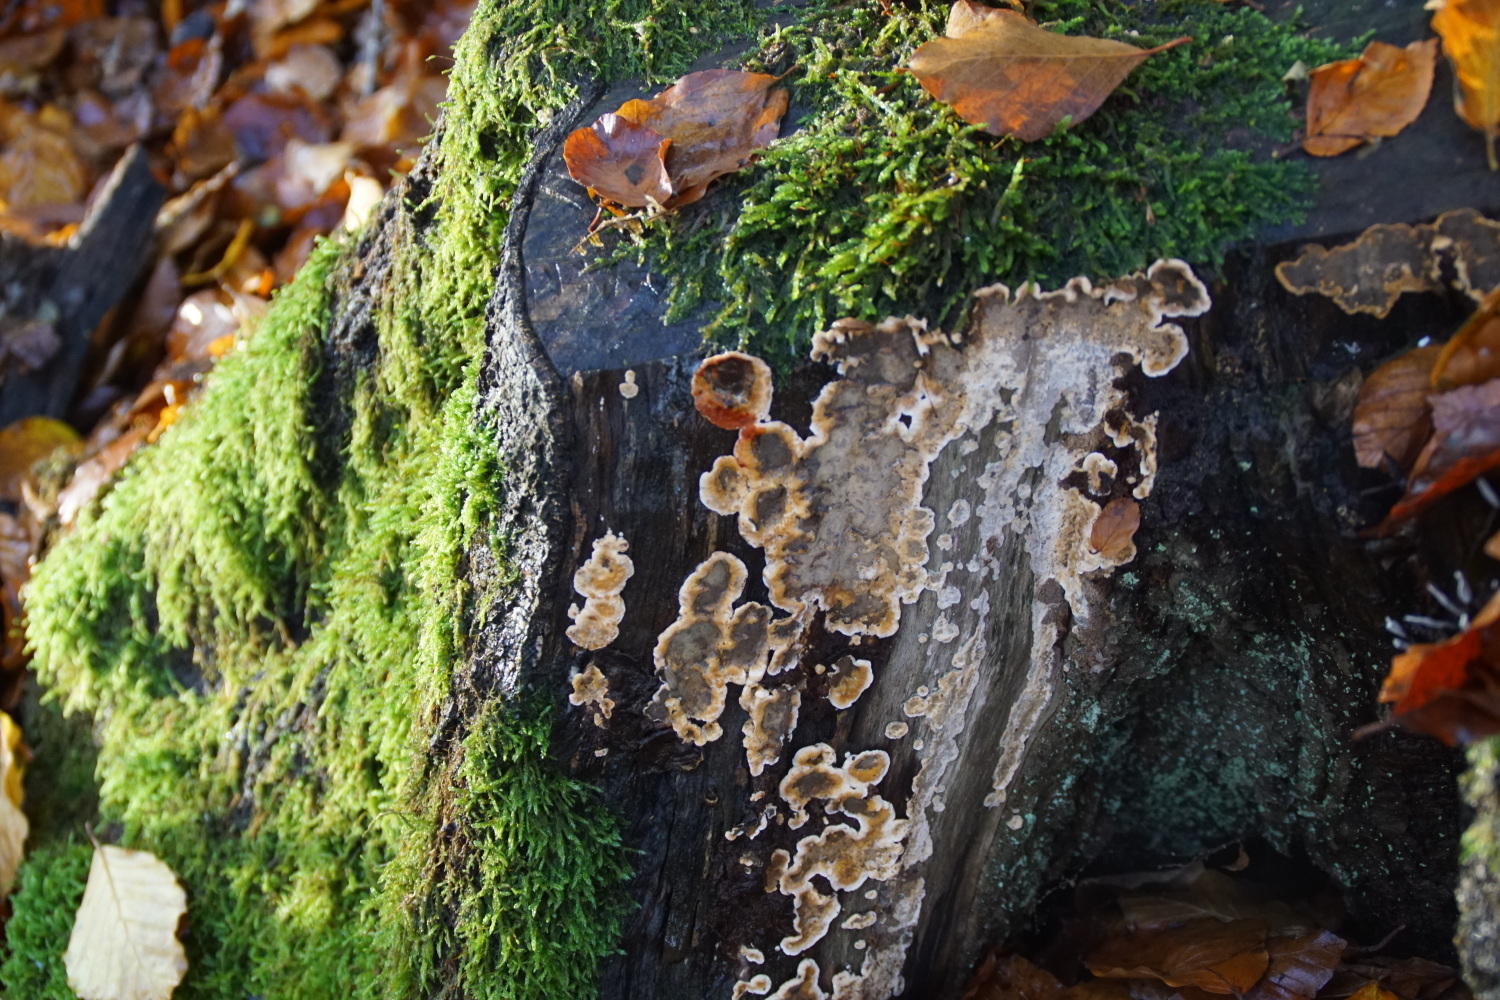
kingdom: Fungi
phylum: Basidiomycota
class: Agaricomycetes
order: Russulales
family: Stereaceae
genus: Stereum
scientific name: Stereum rugosum
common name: rynket lædersvamp
